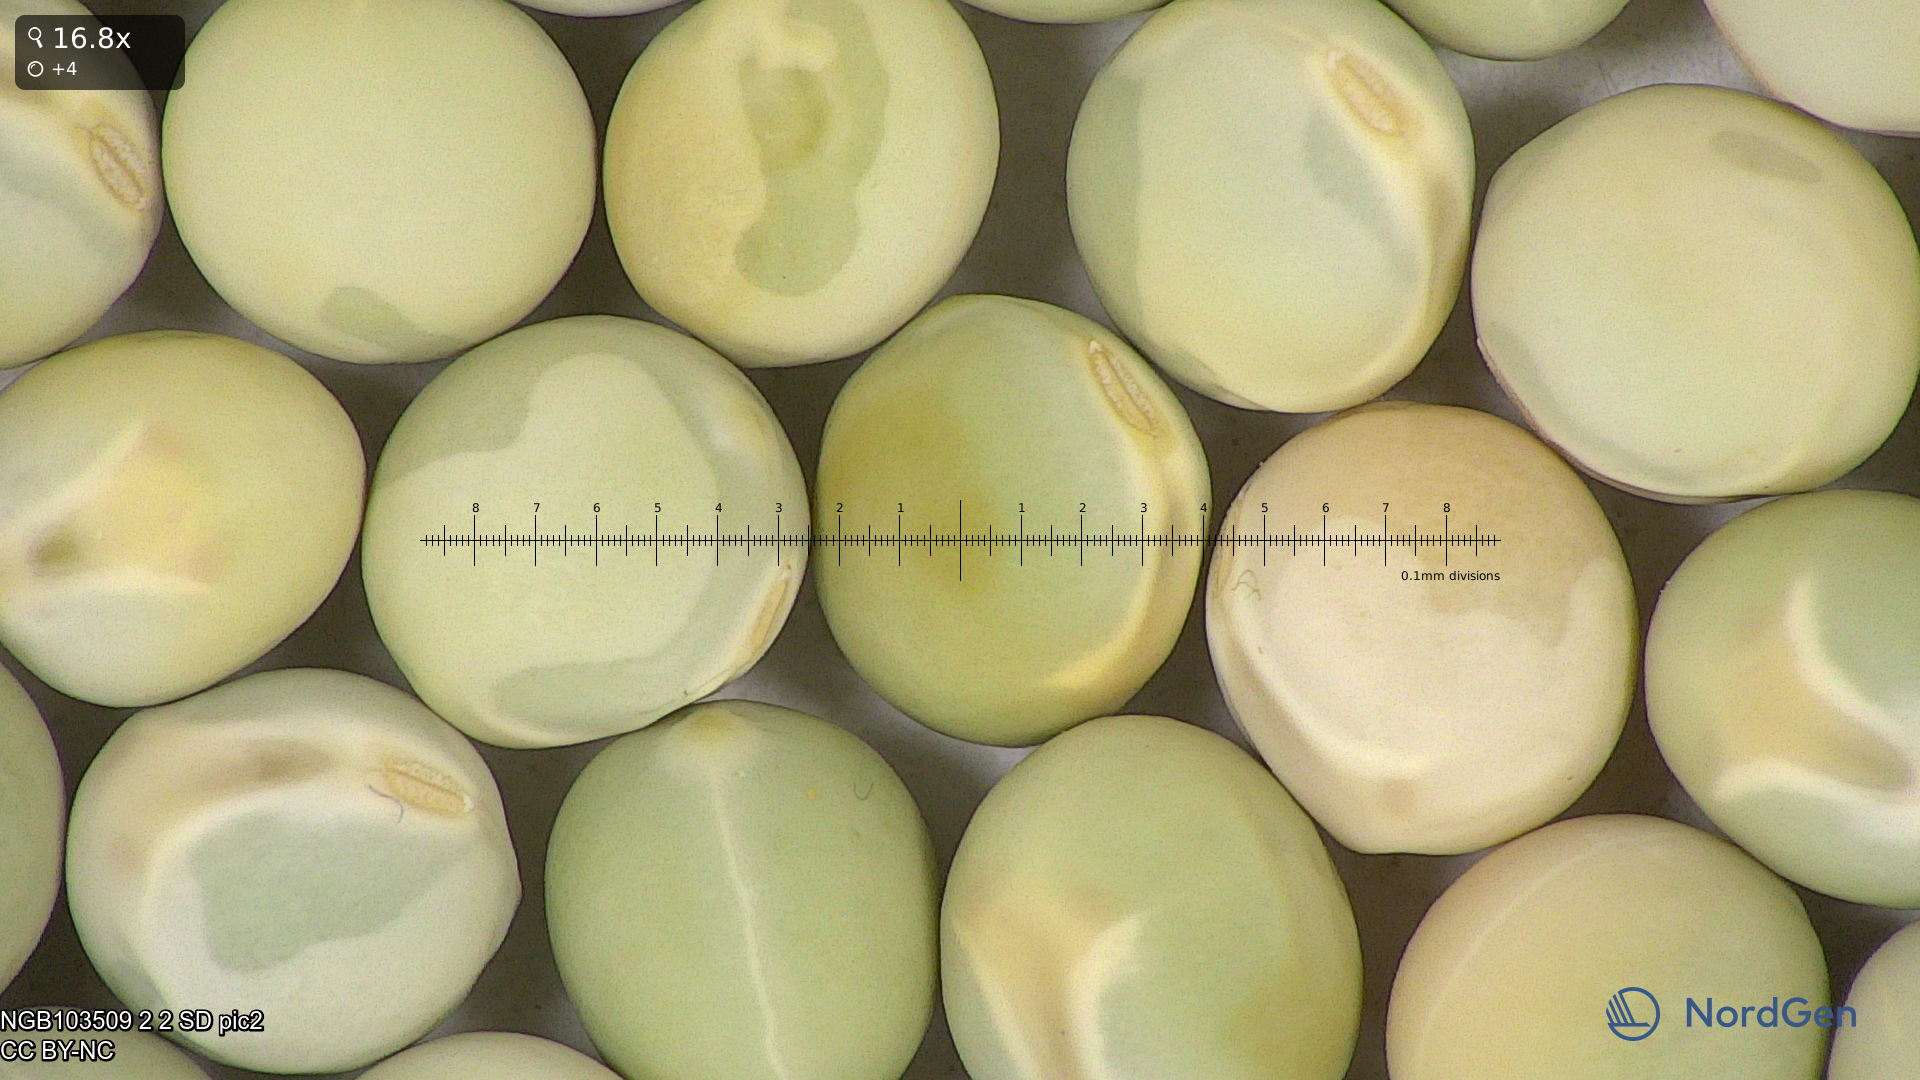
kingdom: Plantae
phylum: Tracheophyta
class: Magnoliopsida
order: Fabales
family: Fabaceae
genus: Lathyrus
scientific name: Lathyrus oleraceus
